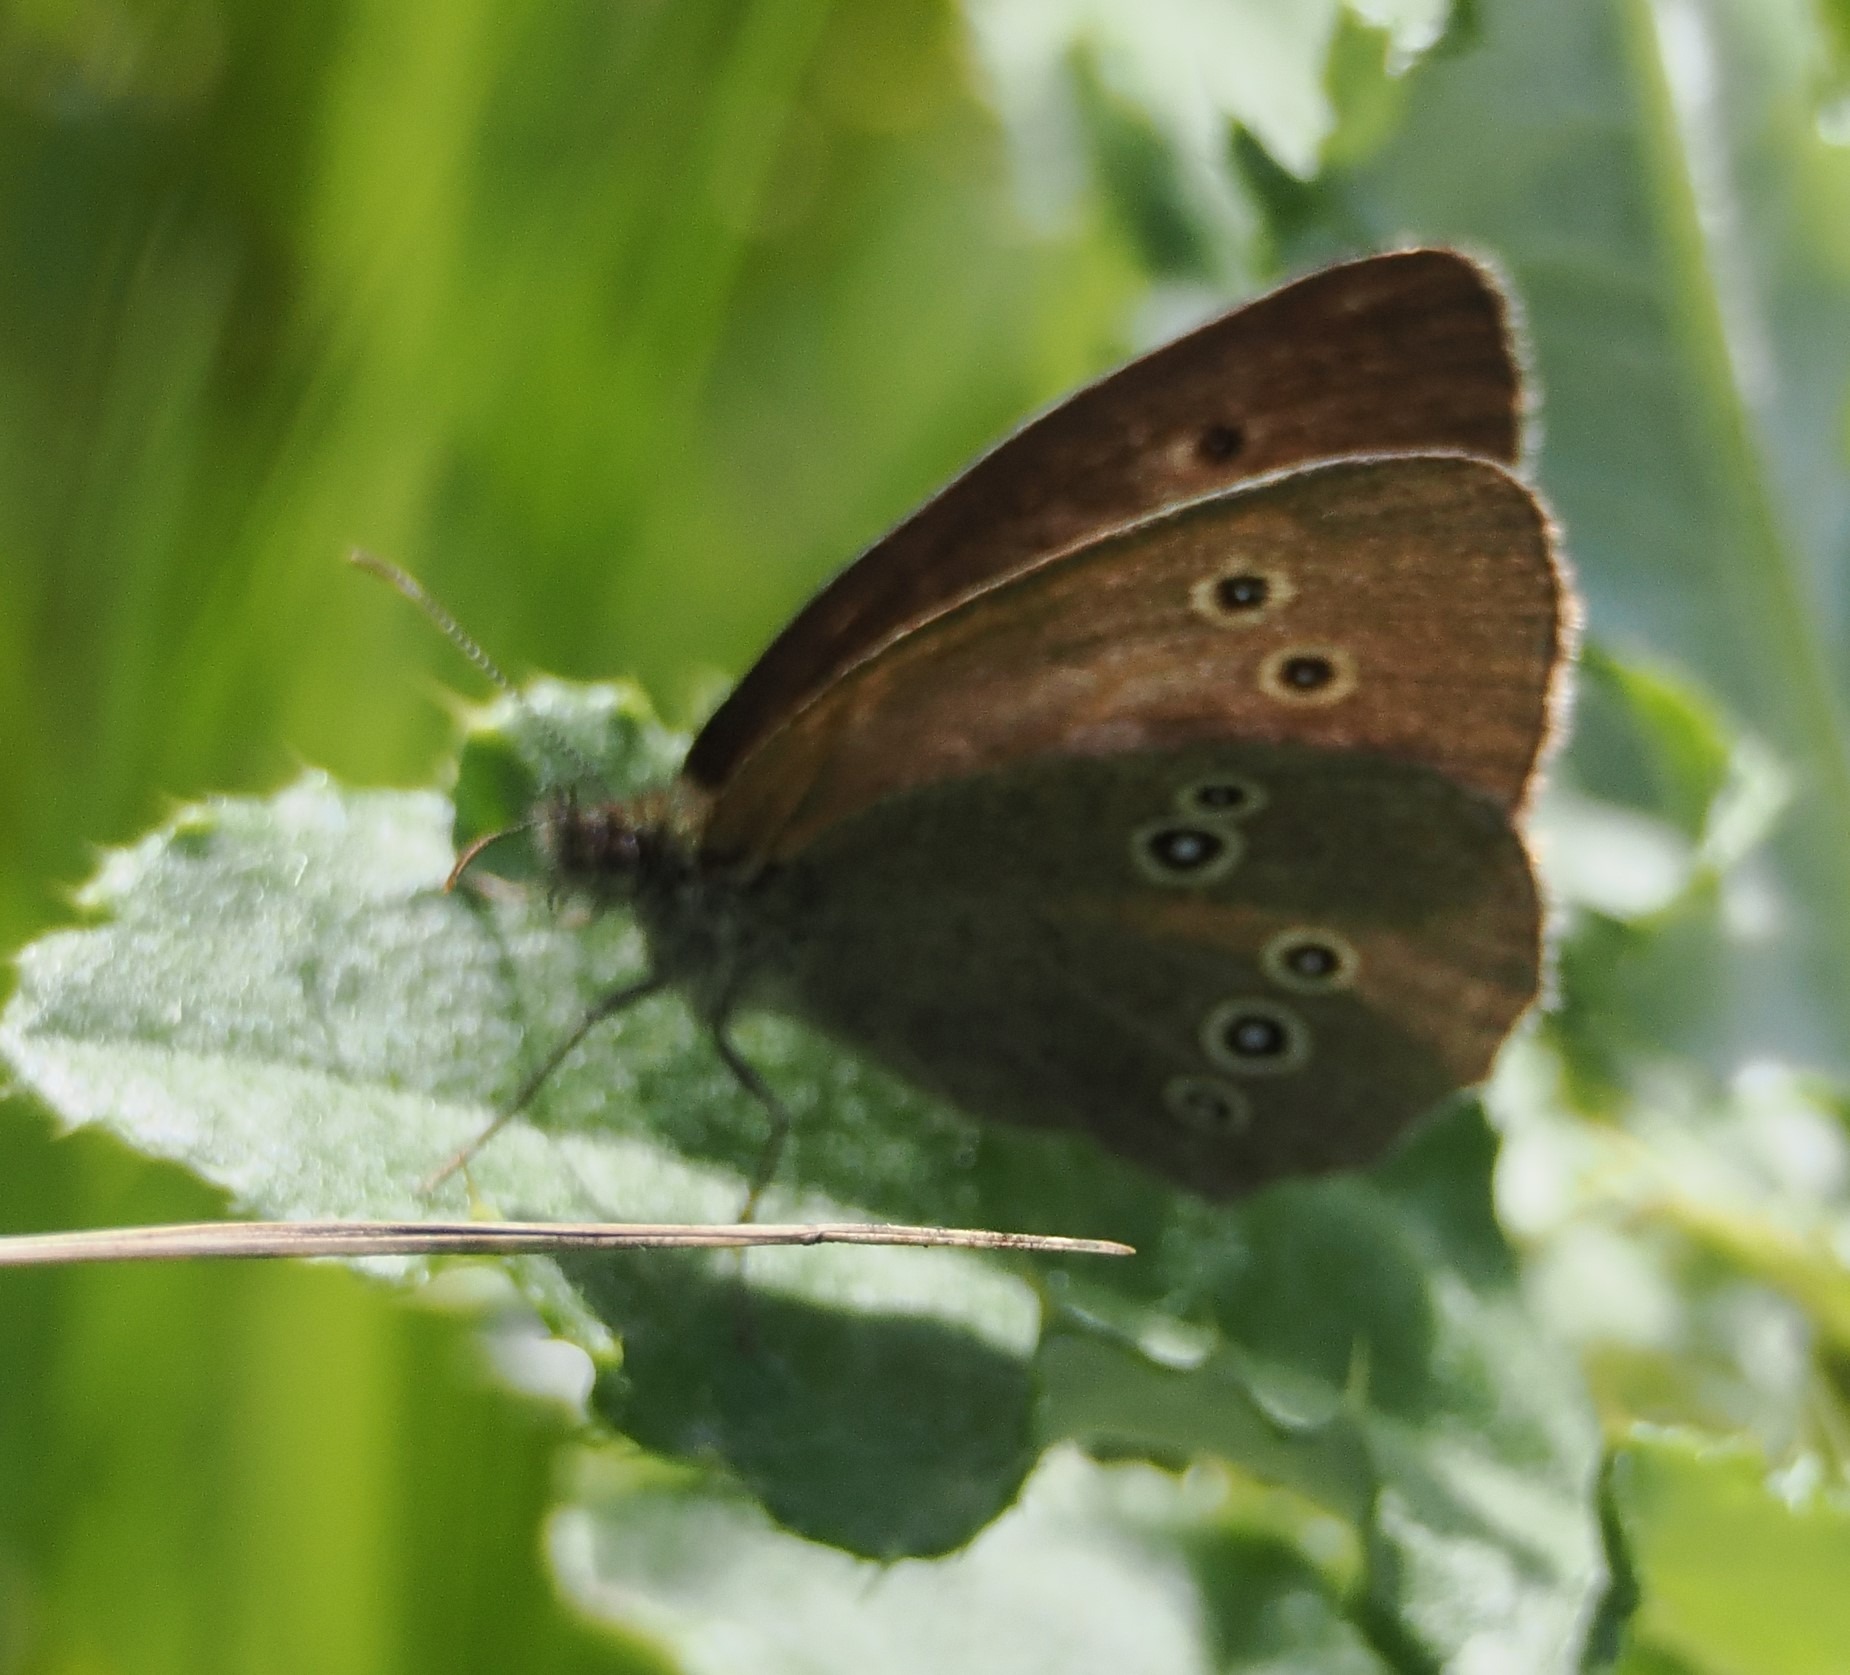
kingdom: Animalia
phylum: Arthropoda
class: Insecta
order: Lepidoptera
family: Nymphalidae
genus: Aphantopus
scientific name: Aphantopus hyperantus
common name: Engrandøje
